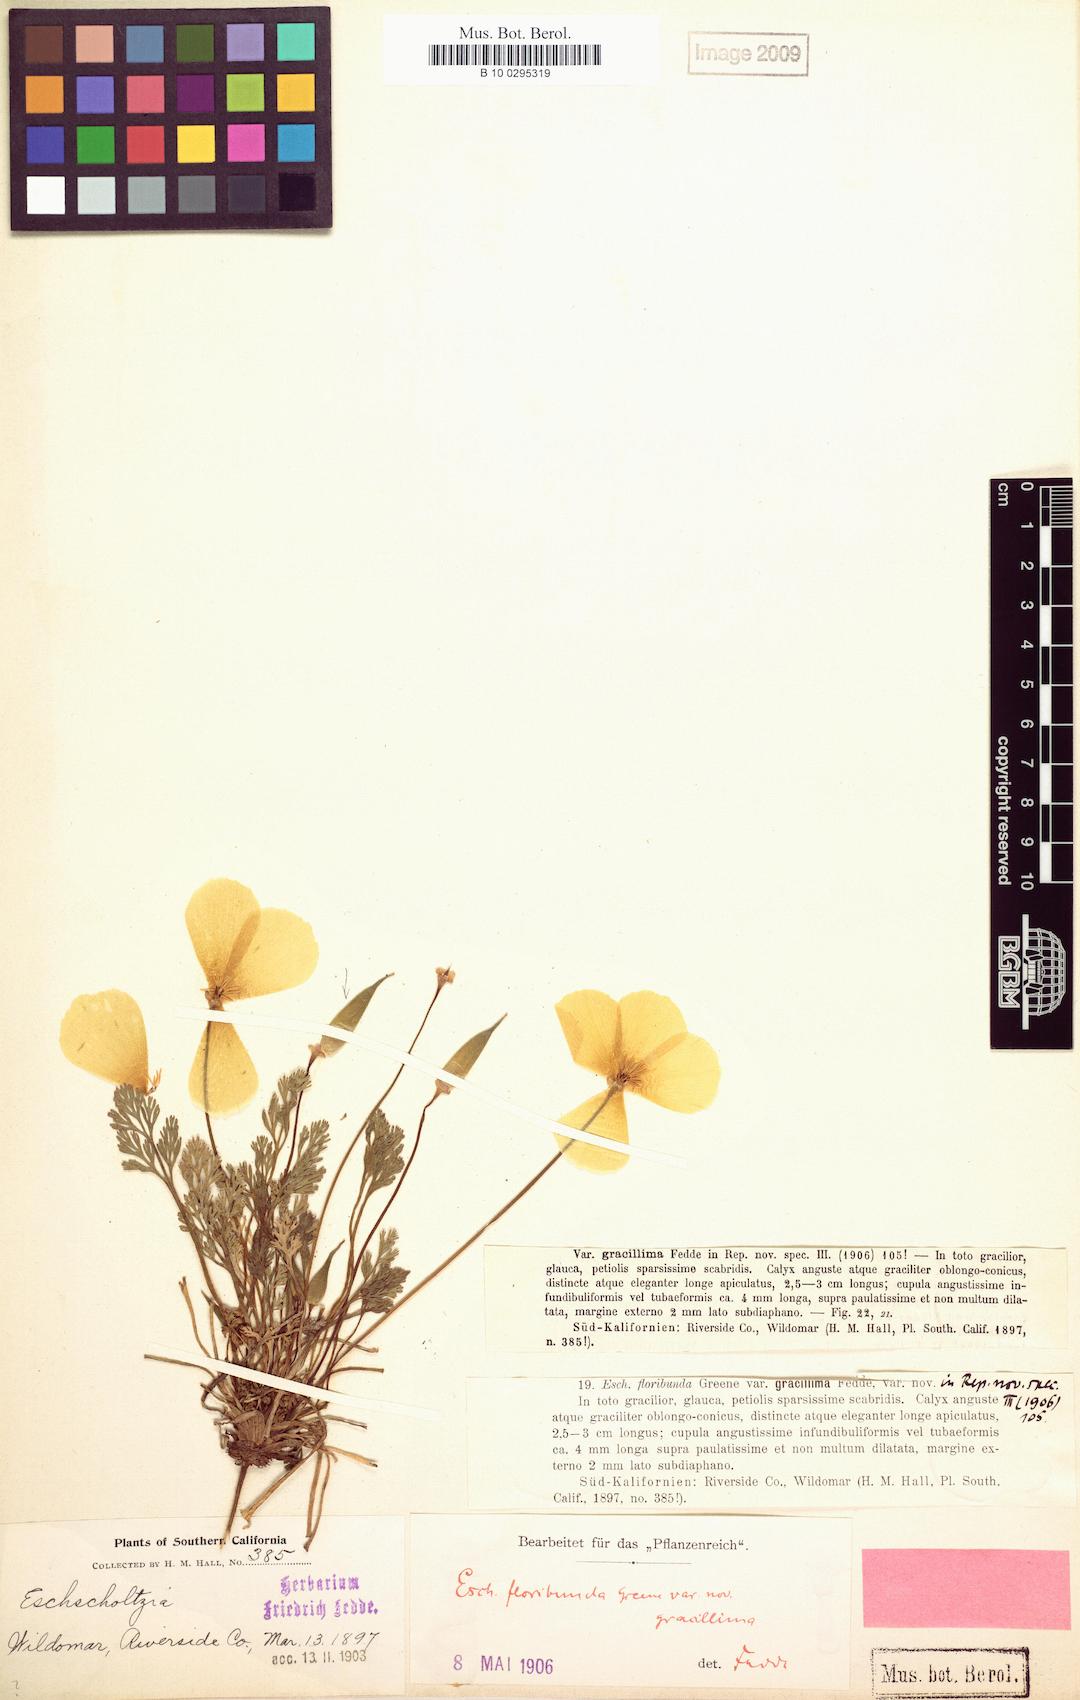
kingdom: Plantae
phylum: Tracheophyta
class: Magnoliopsida
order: Ranunculales
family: Papaveraceae
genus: Eschscholzia
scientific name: Eschscholzia californica
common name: California poppy
